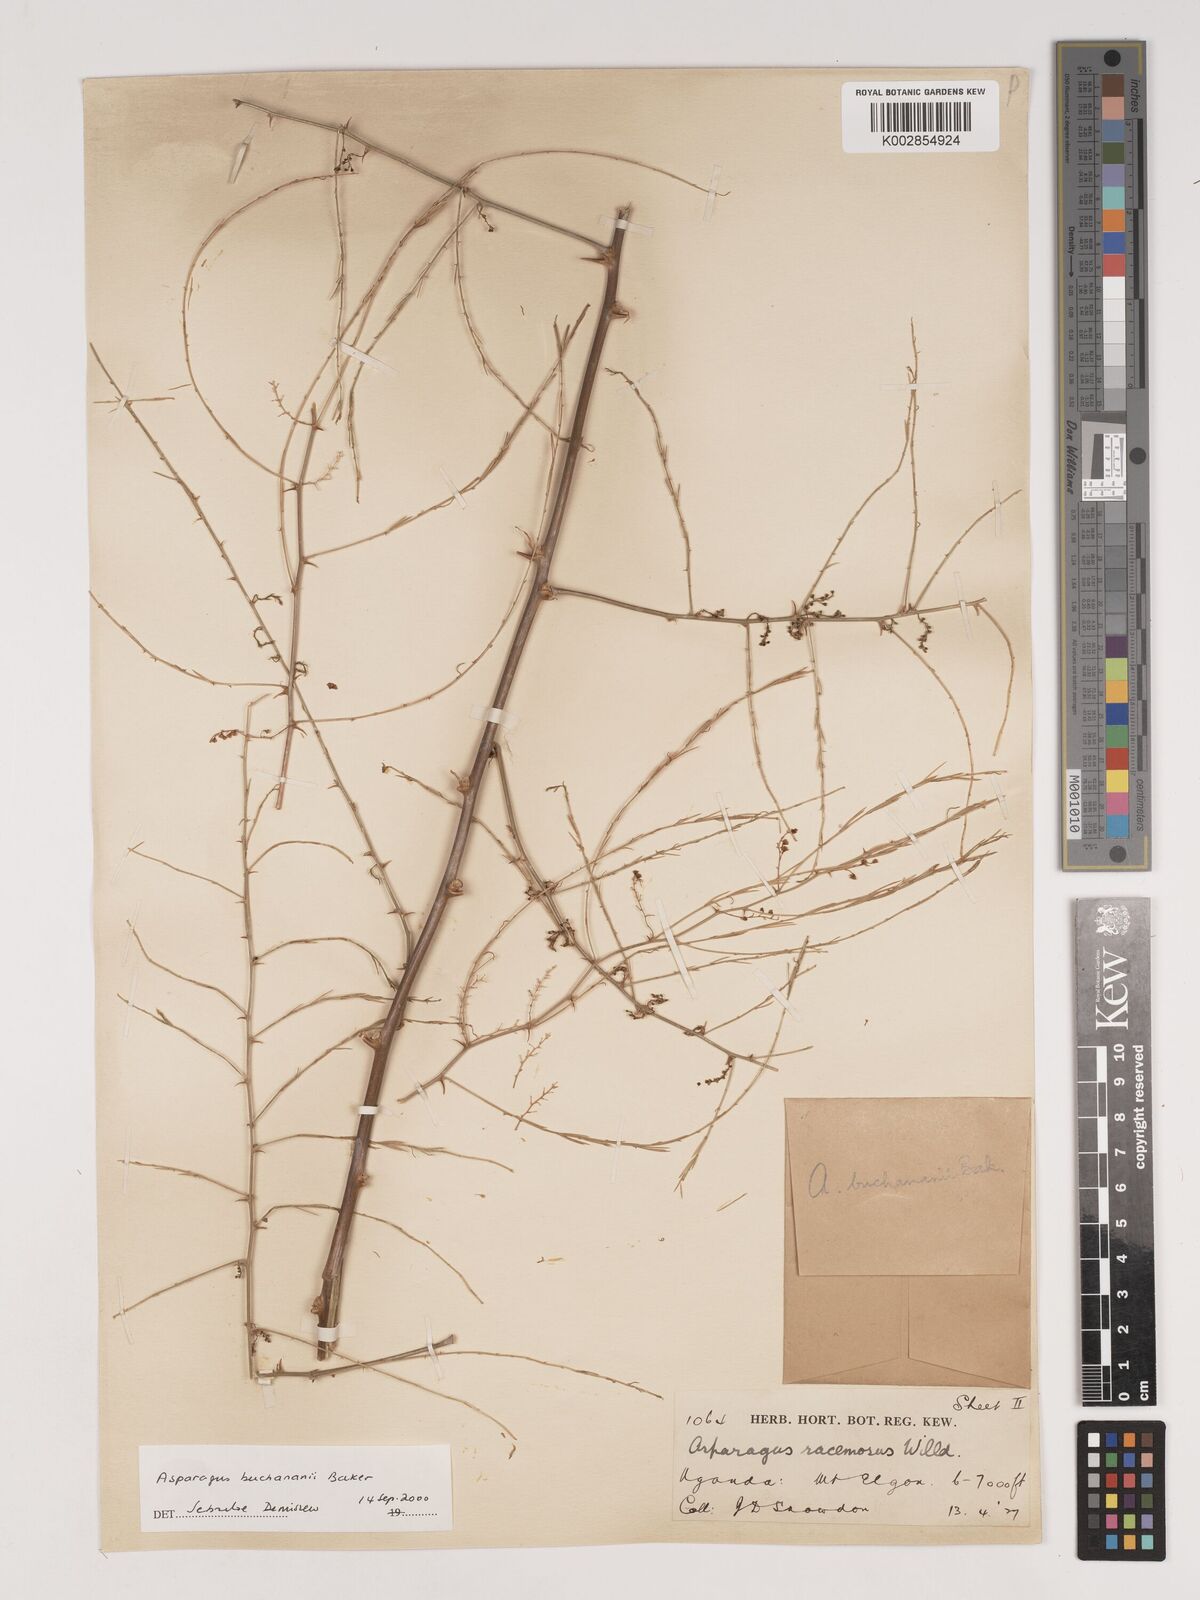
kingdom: Plantae
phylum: Tracheophyta
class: Liliopsida
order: Asparagales
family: Asparagaceae
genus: Asparagus
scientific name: Asparagus buchananii
